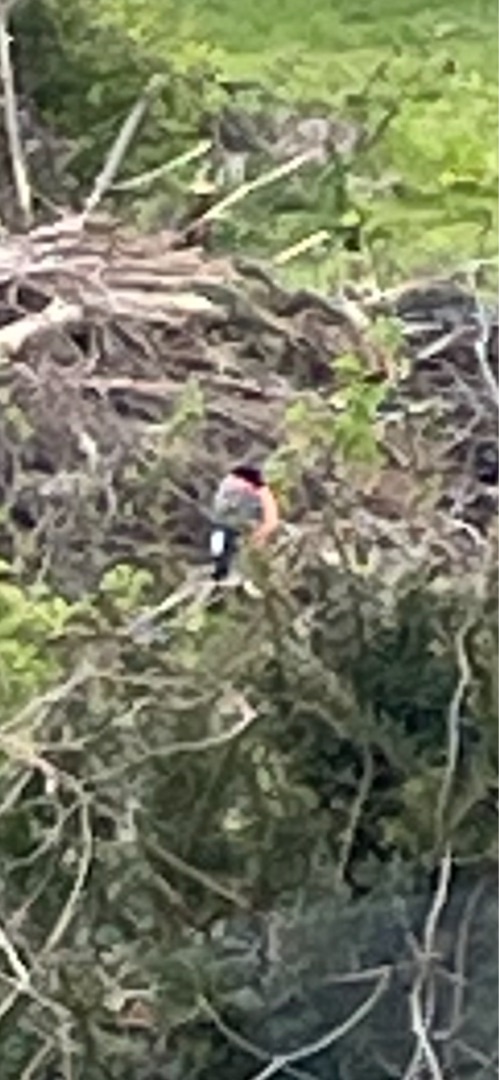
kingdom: Animalia
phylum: Chordata
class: Aves
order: Passeriformes
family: Fringillidae
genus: Pyrrhula
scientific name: Pyrrhula pyrrhula
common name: Dompap
